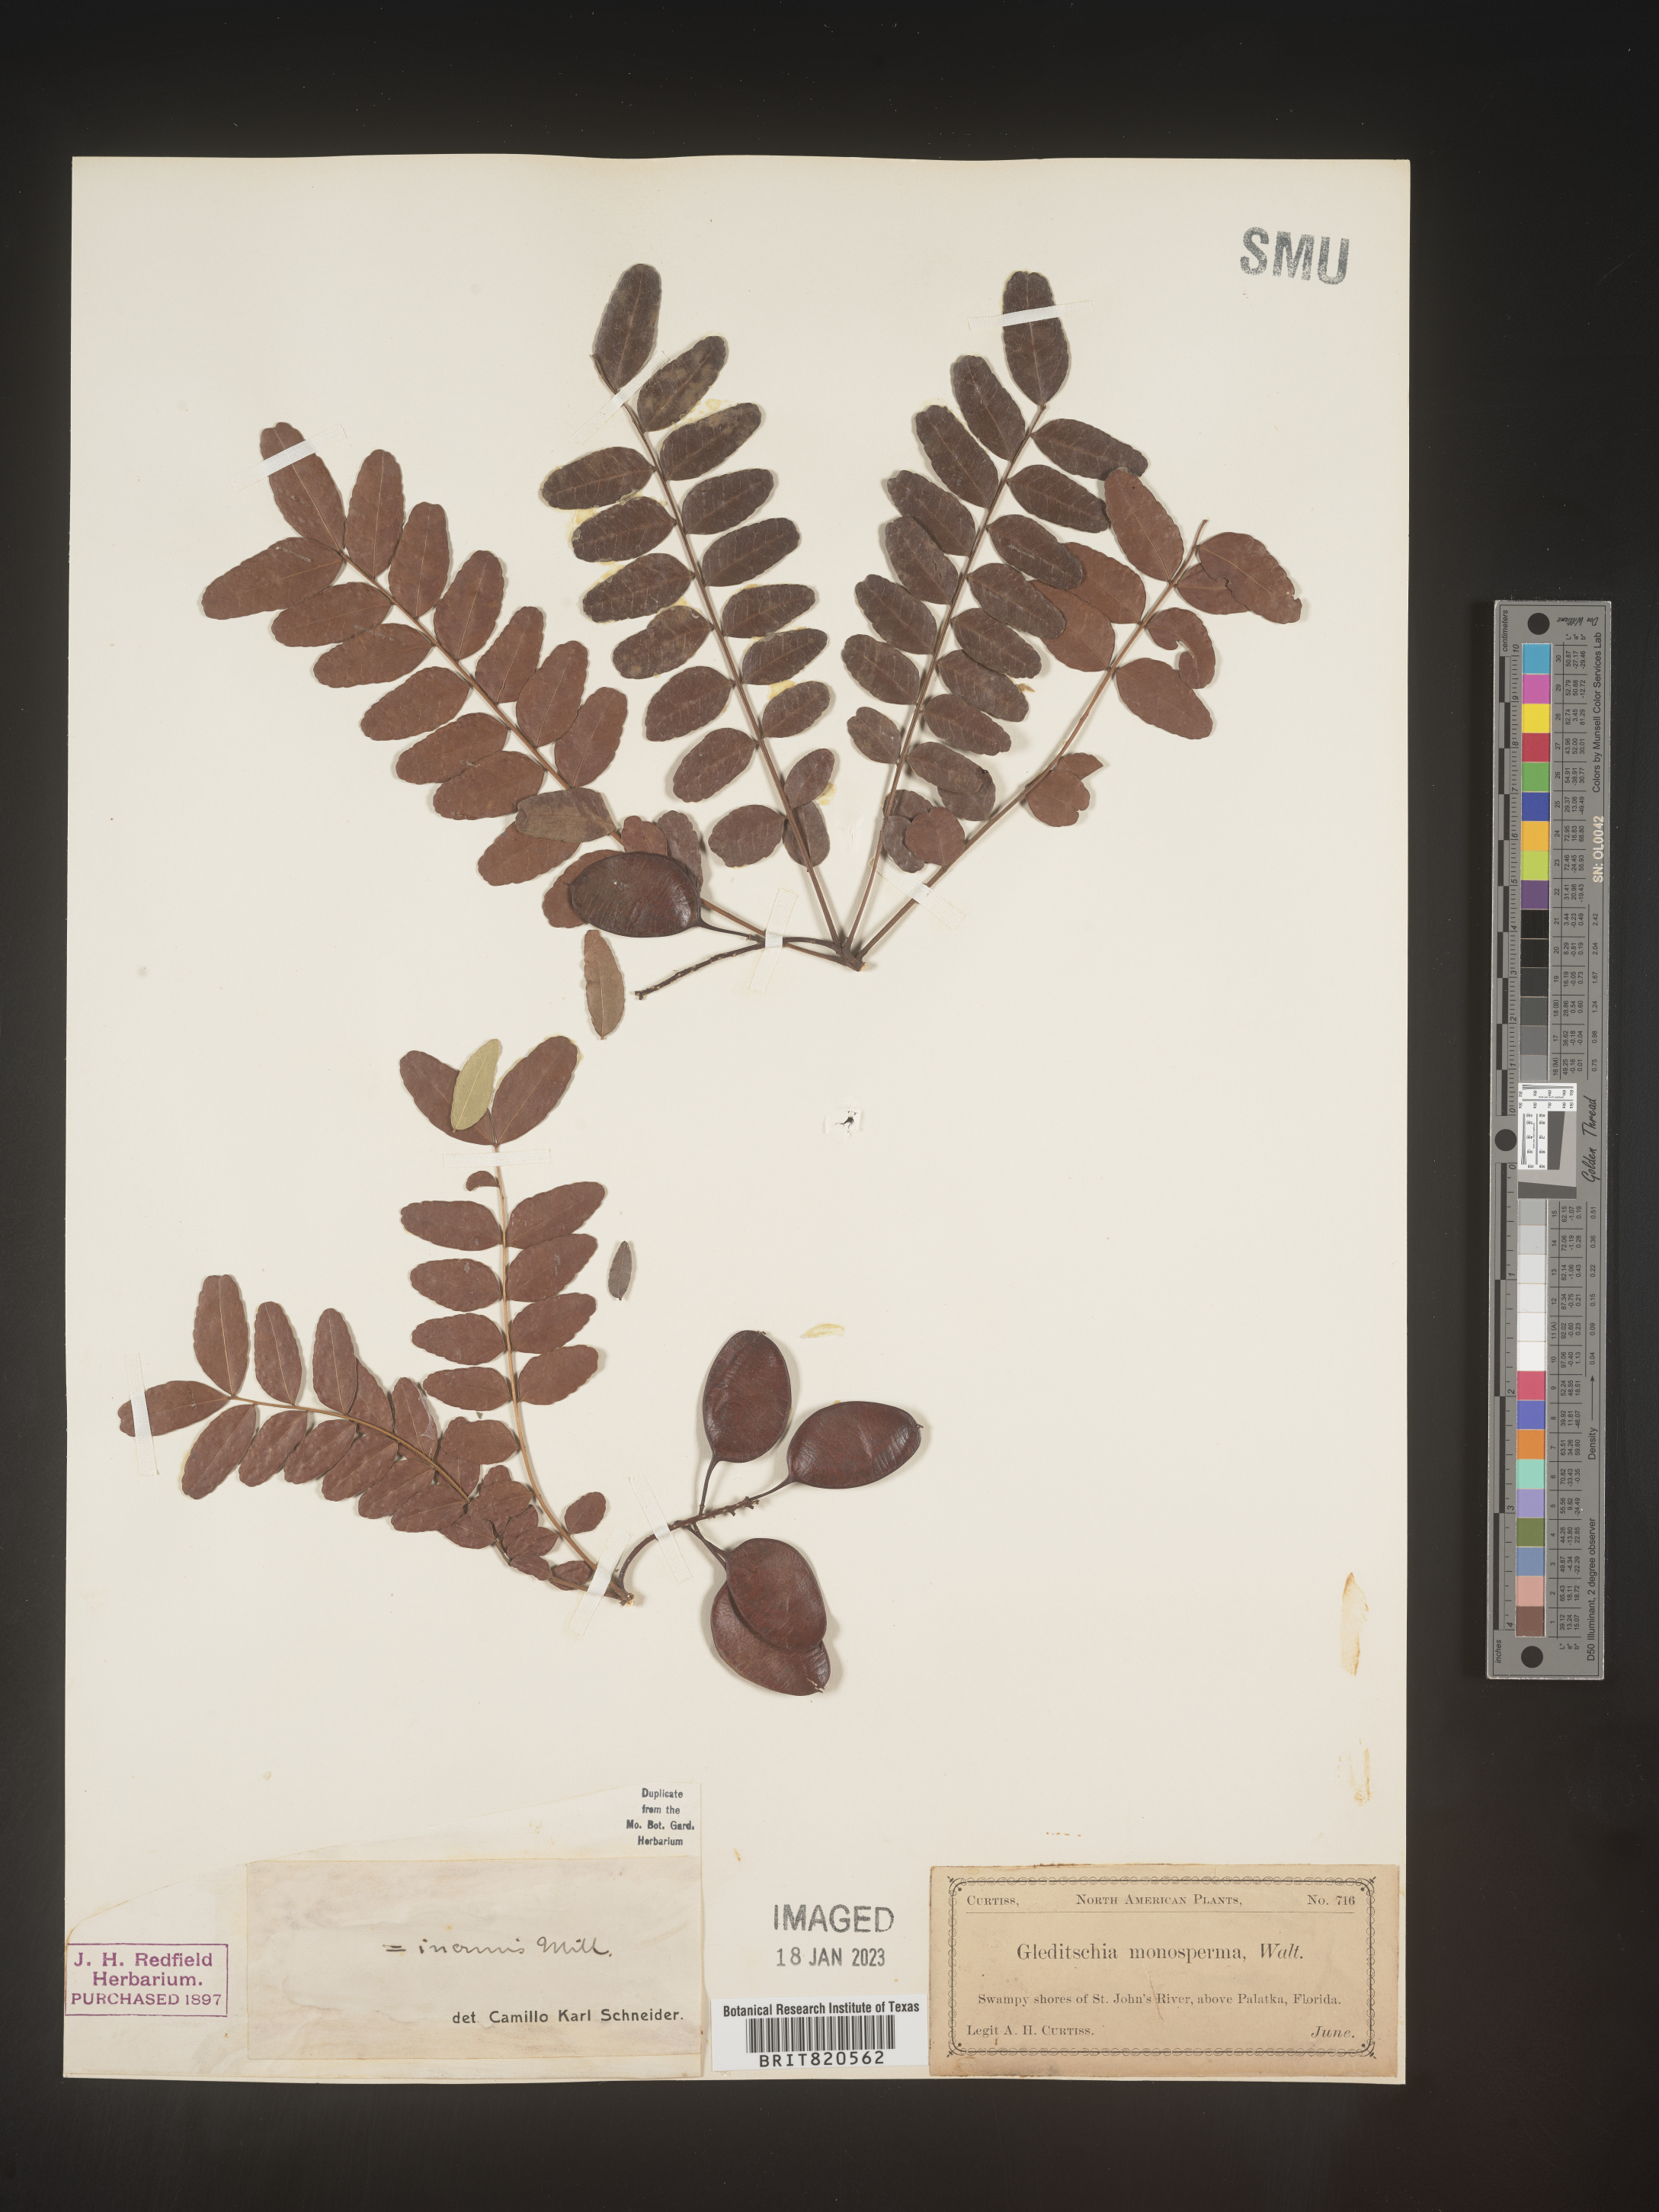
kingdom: Plantae
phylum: Tracheophyta
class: Magnoliopsida
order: Fabales
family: Fabaceae
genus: Gleditsia
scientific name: Gleditsia
